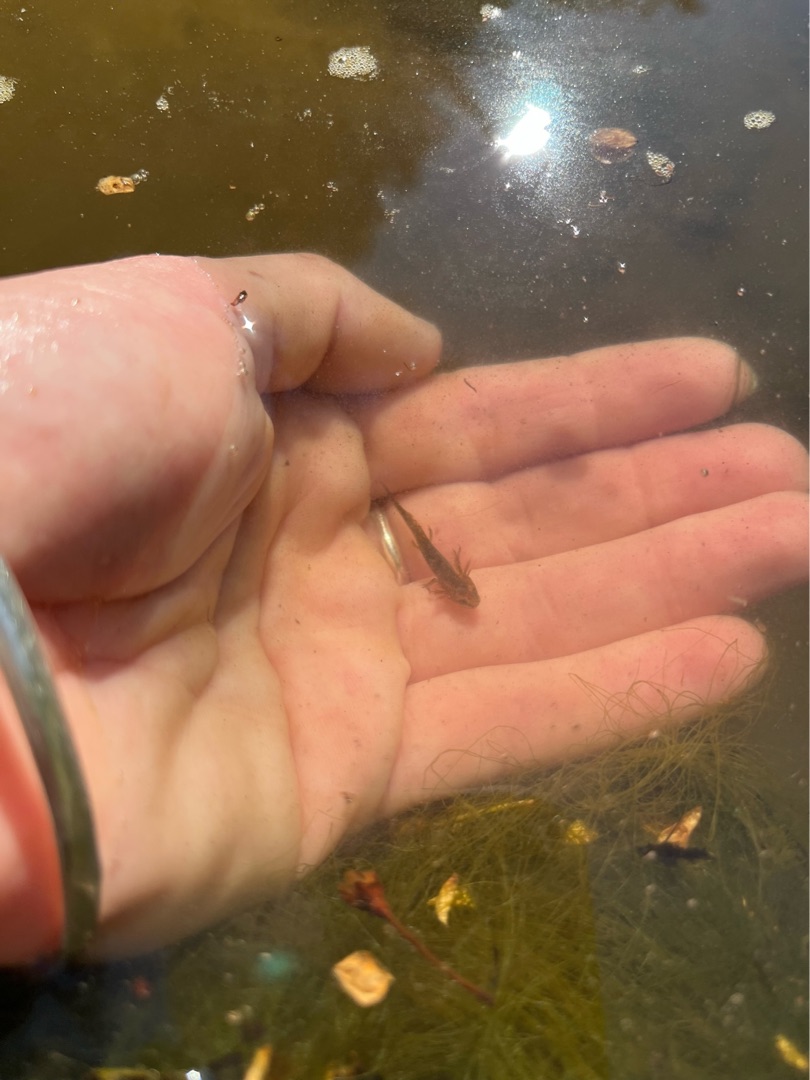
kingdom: Animalia
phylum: Chordata
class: Amphibia
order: Caudata
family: Salamandridae
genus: Lissotriton
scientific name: Lissotriton vulgaris
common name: Lille vandsalamander
